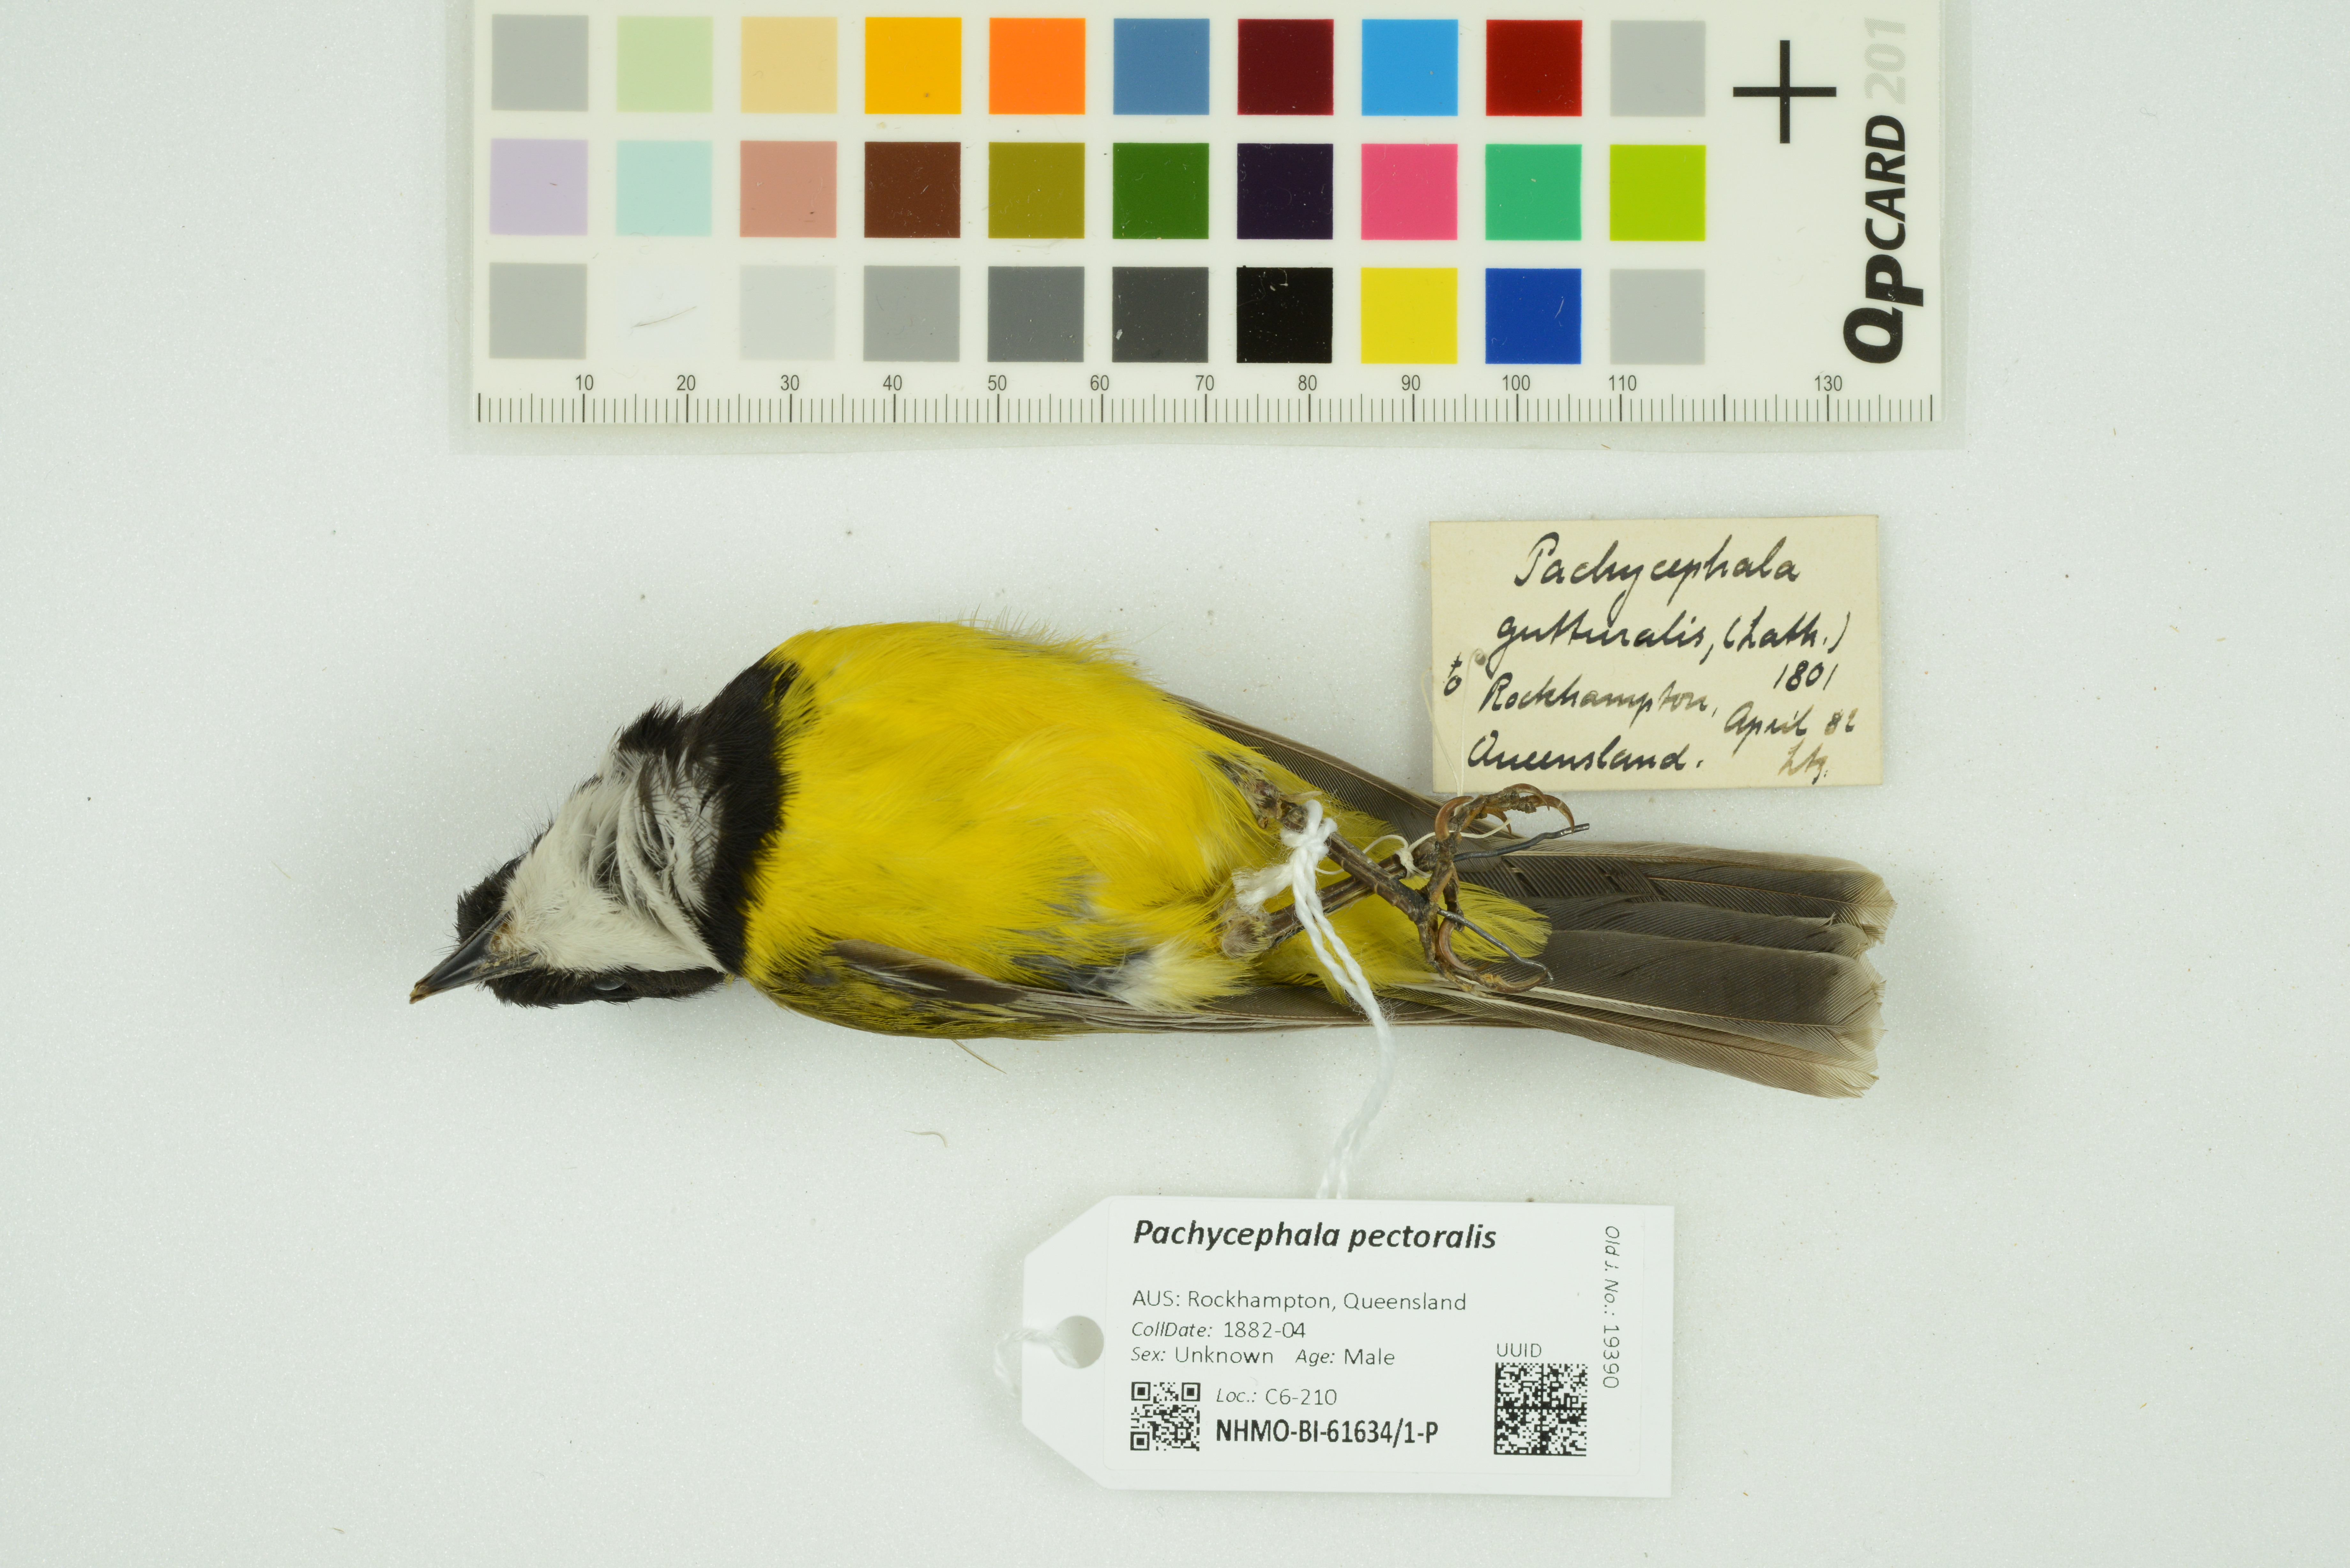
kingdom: Animalia
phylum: Chordata
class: Aves
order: Passeriformes
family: Pachycephalidae
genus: Pachycephala
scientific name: Pachycephala pectoralis
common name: Australian golden whistler
